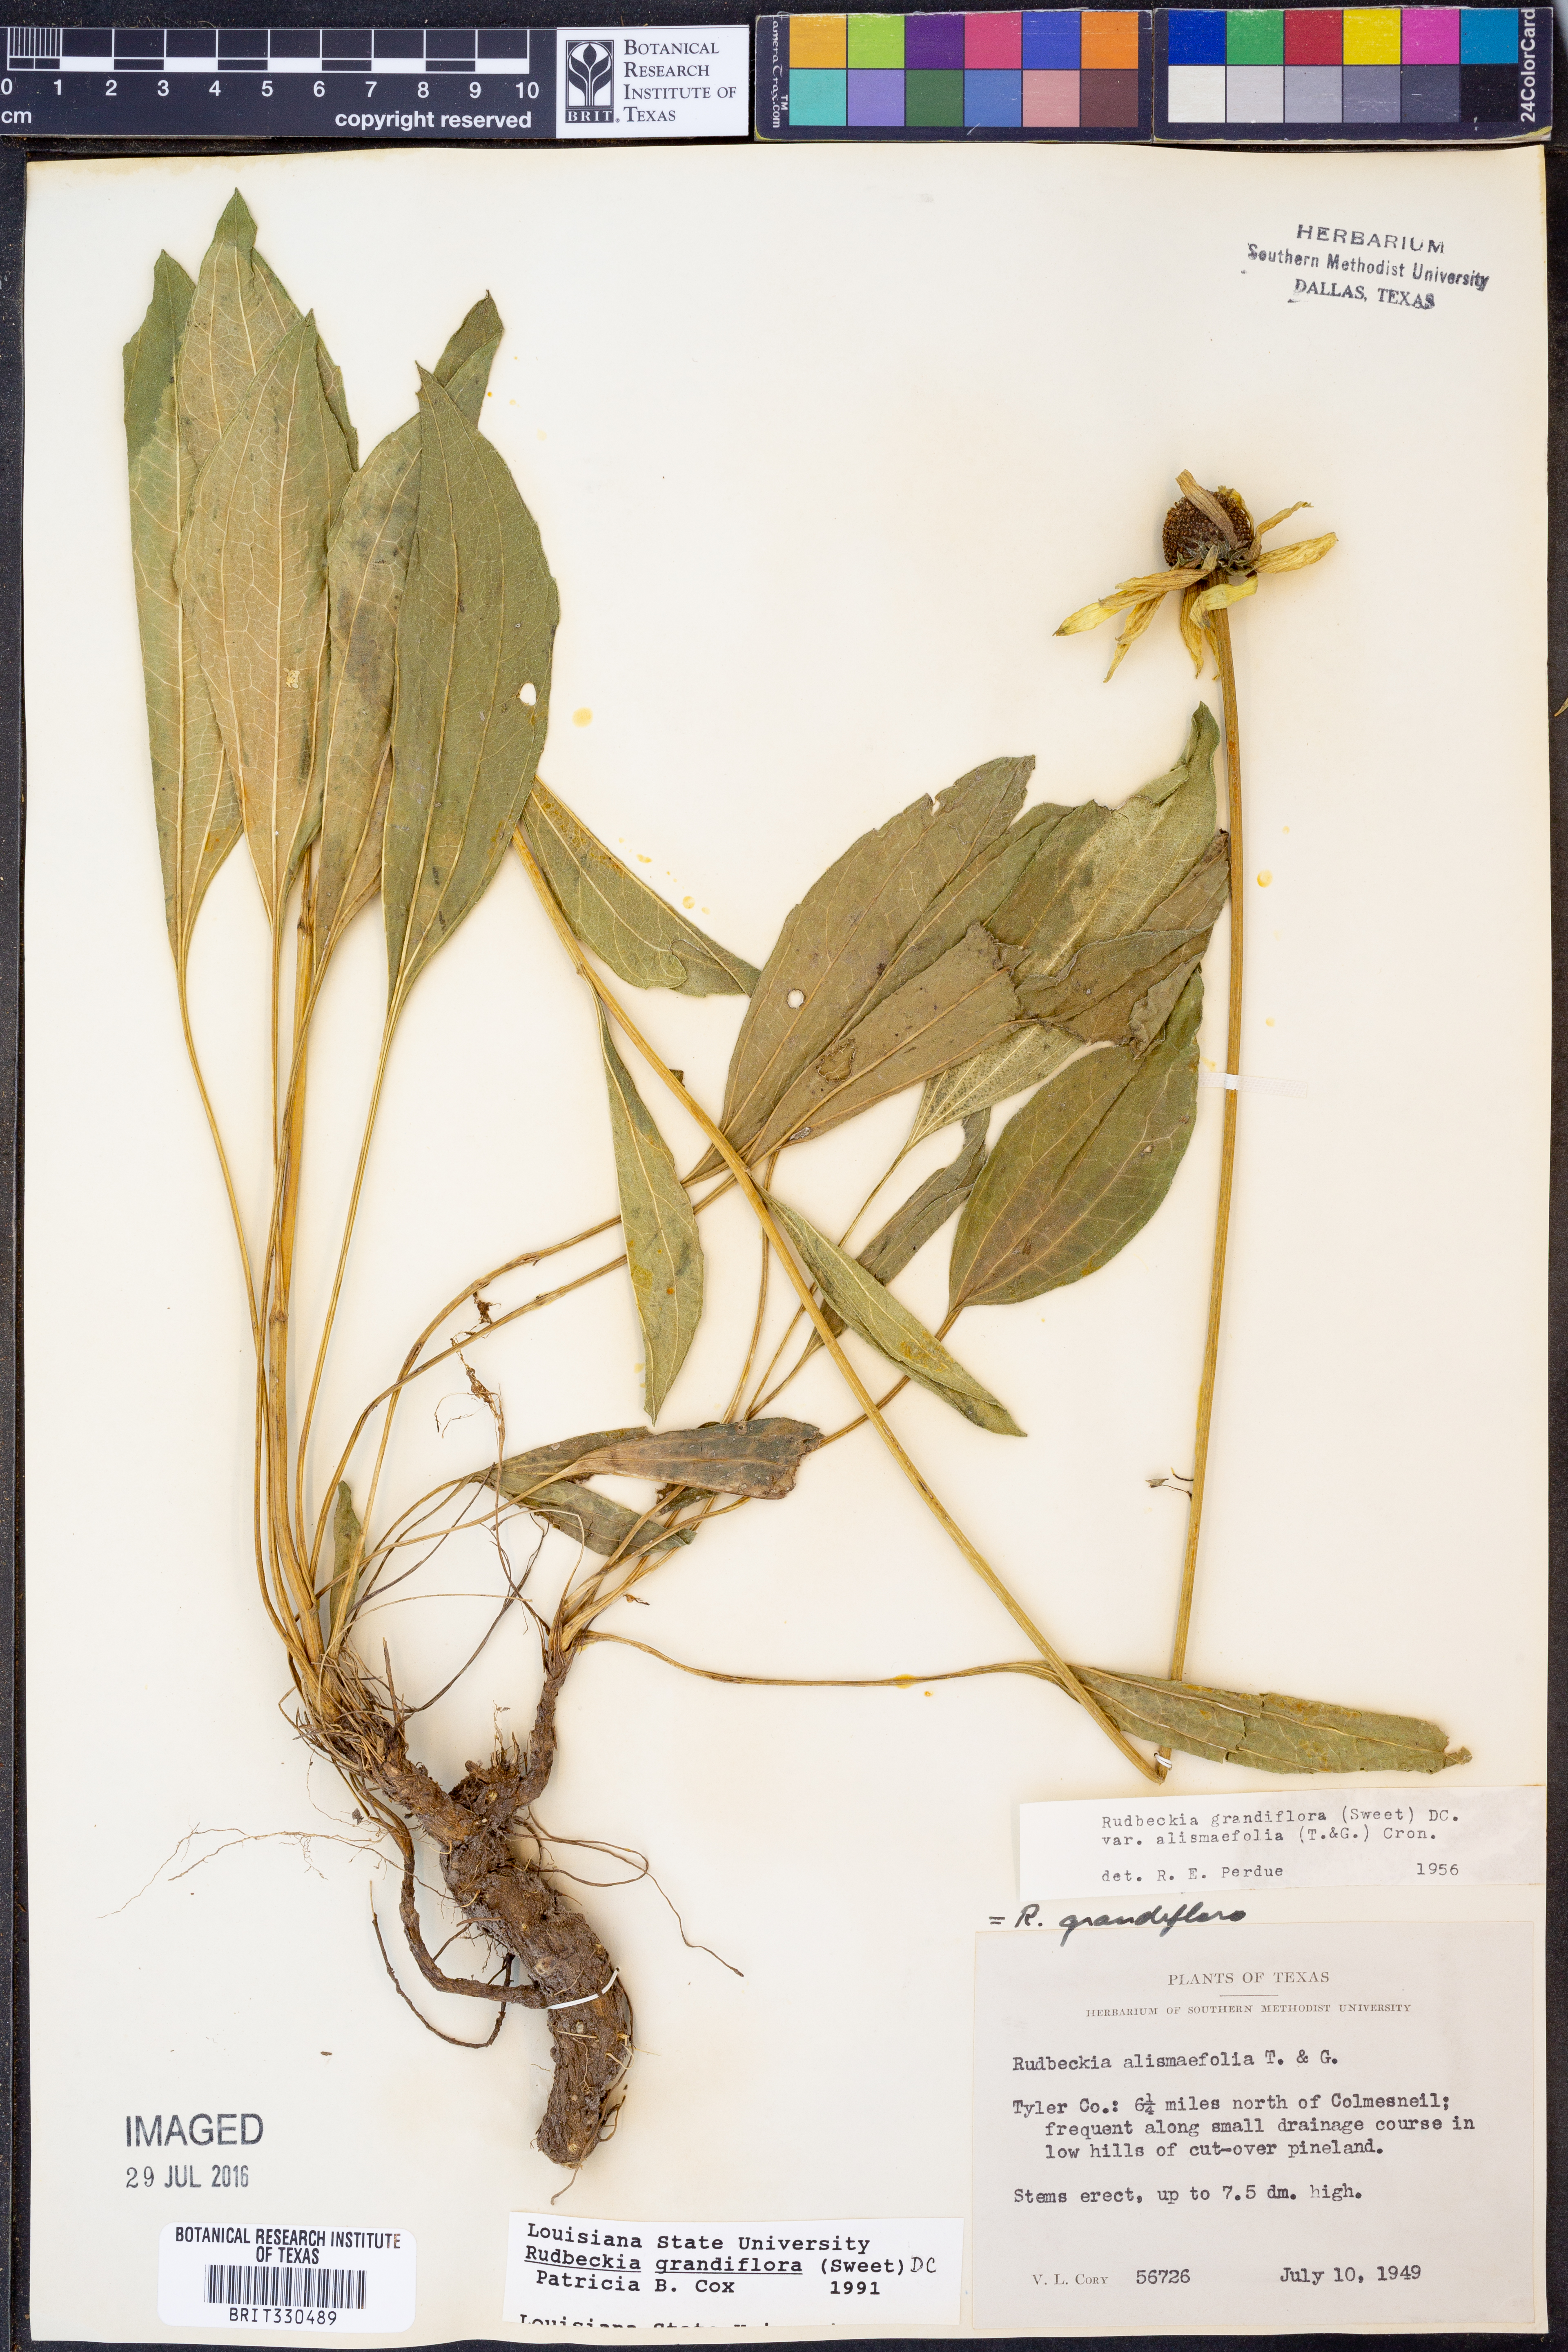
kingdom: Plantae
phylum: Tracheophyta
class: Magnoliopsida
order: Asterales
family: Asteraceae
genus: Rudbeckia
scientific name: Rudbeckia grandiflora
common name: Large-flowered coneflower
